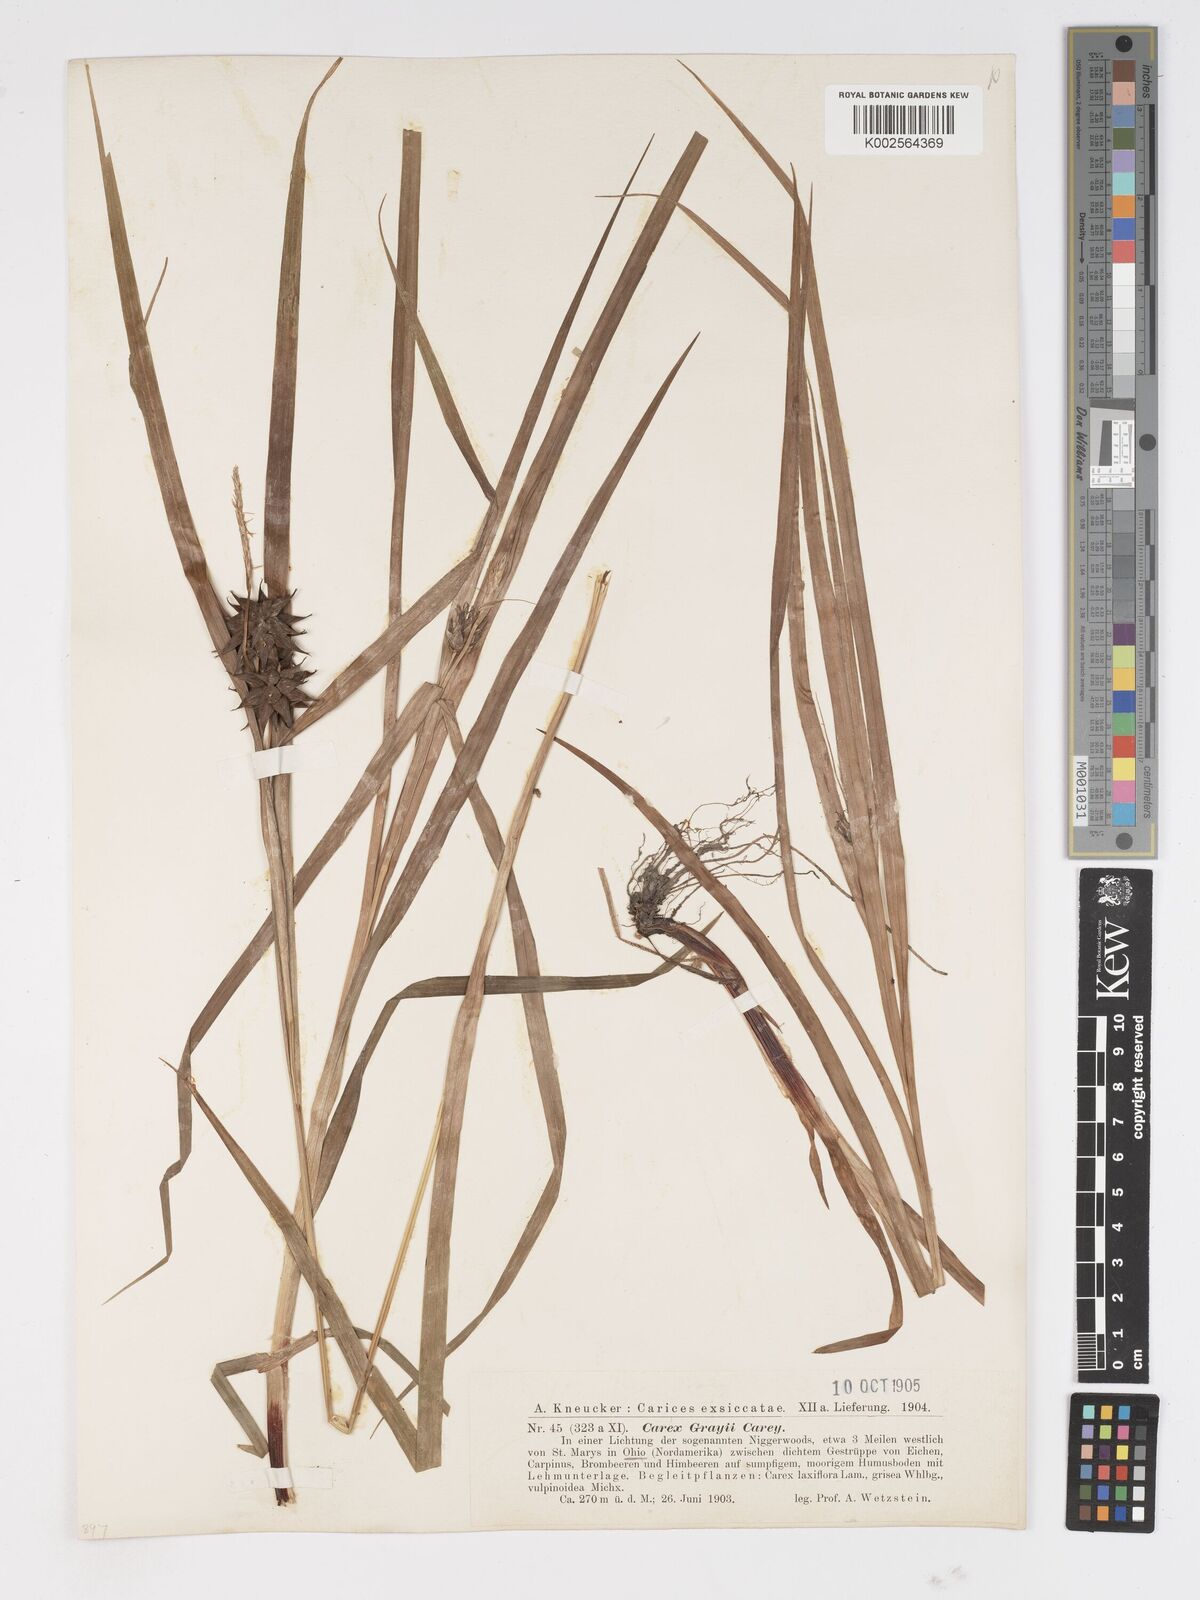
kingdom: Plantae
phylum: Tracheophyta
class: Liliopsida
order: Poales
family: Cyperaceae
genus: Carex
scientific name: Carex grayi
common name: Asa gray's sedge
